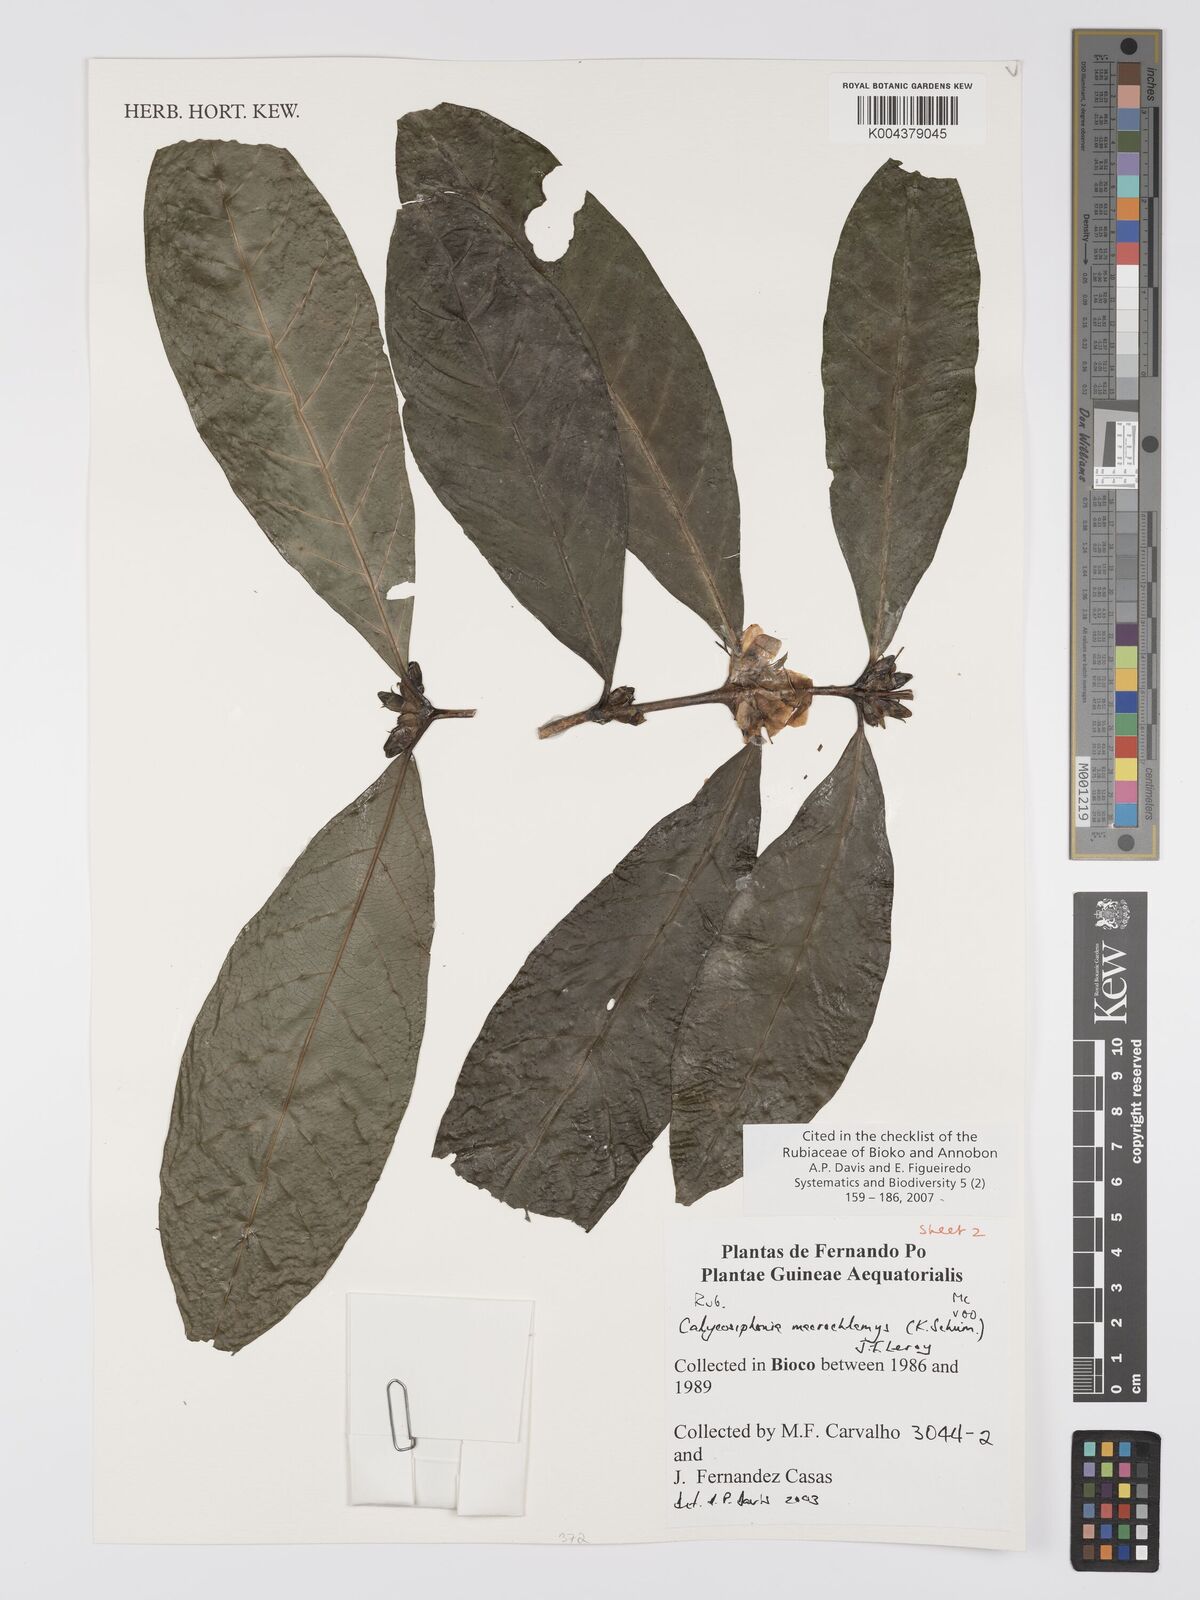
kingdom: Plantae
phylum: Tracheophyta
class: Magnoliopsida
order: Gentianales
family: Rubiaceae
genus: Calycosiphonia
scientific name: Calycosiphonia macrochlamys
